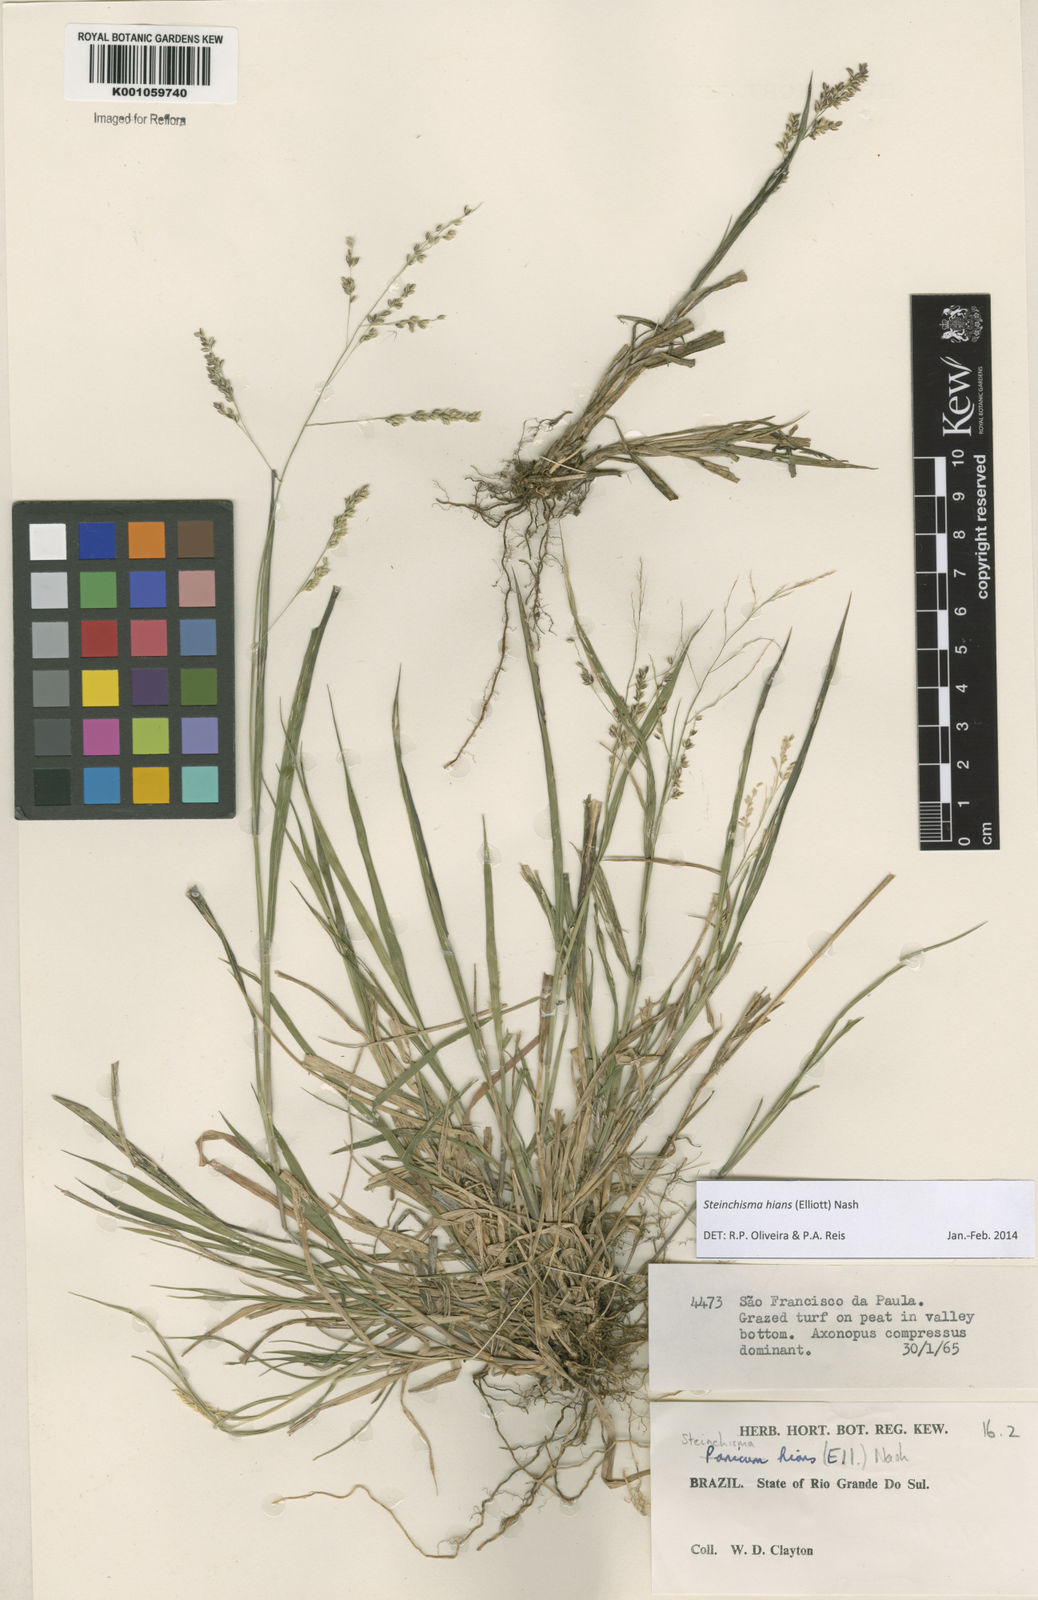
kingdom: Plantae
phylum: Tracheophyta
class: Liliopsida
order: Poales
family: Poaceae
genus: Steinchisma
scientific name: Steinchisma hians
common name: Gaping panic grass
